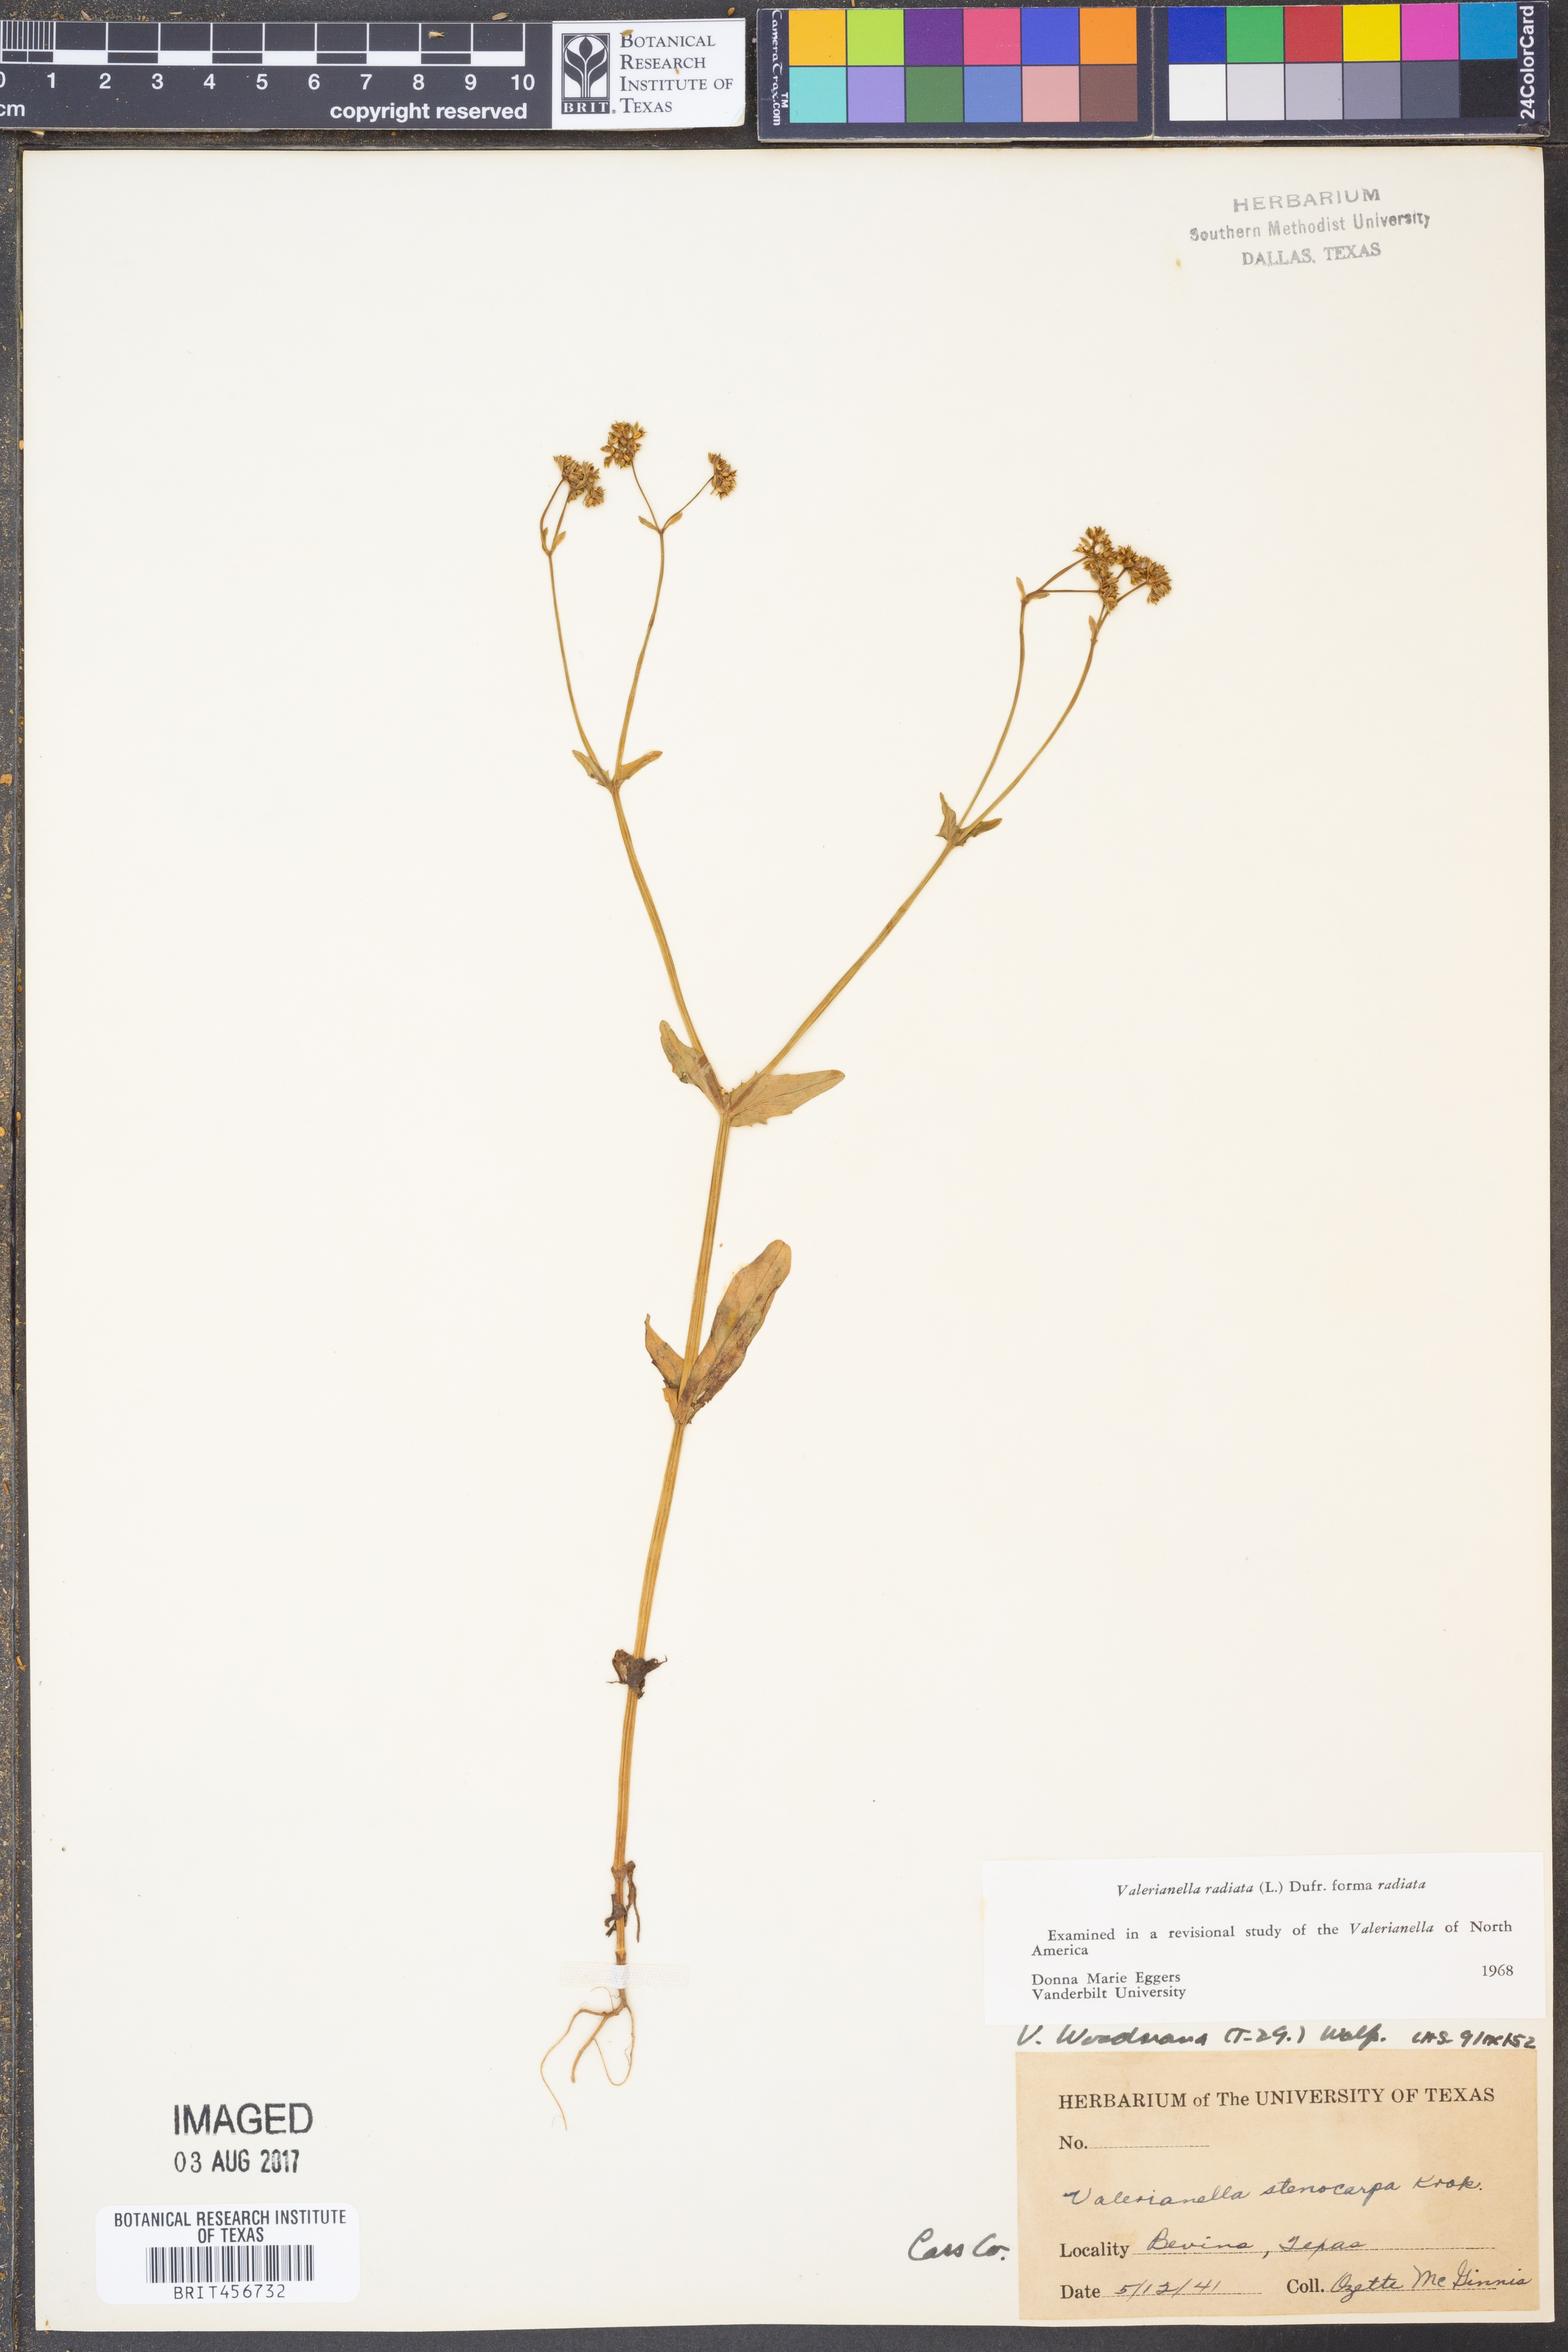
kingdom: Plantae
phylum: Tracheophyta
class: Magnoliopsida
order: Dipsacales
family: Caprifoliaceae
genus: Valerianella
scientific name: Valerianella radiata
